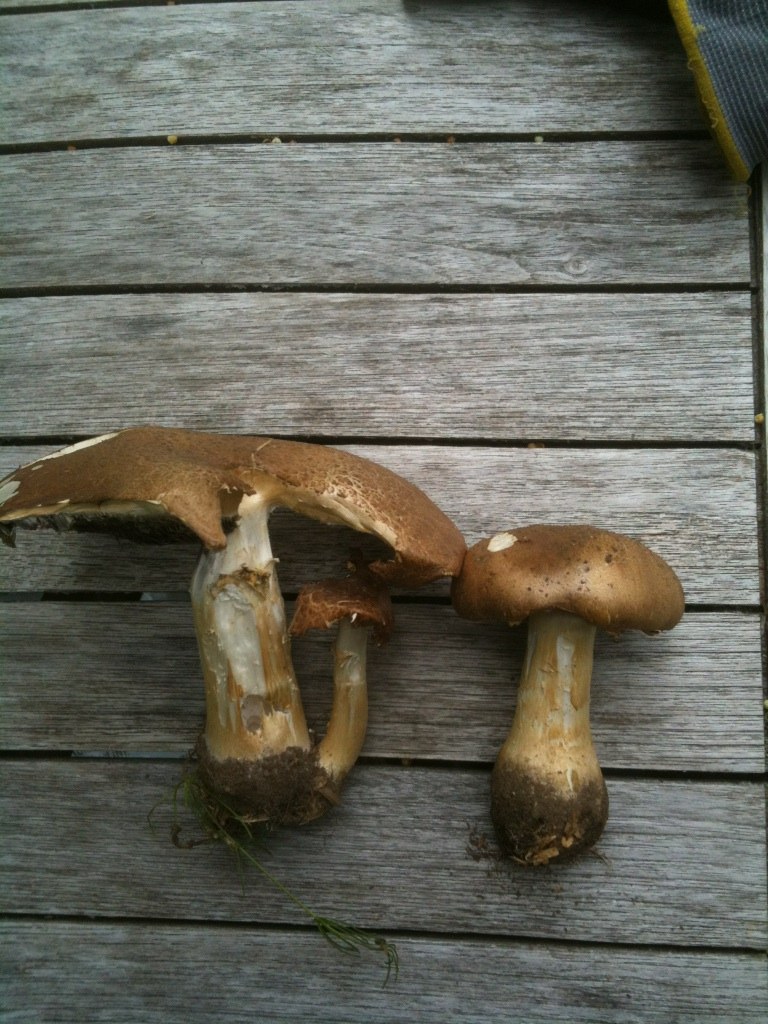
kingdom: Fungi
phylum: Basidiomycota
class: Agaricomycetes
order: Agaricales
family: Strophariaceae
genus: Stropharia
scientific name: Stropharia rugosoannulata
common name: rødbrun bredblad
